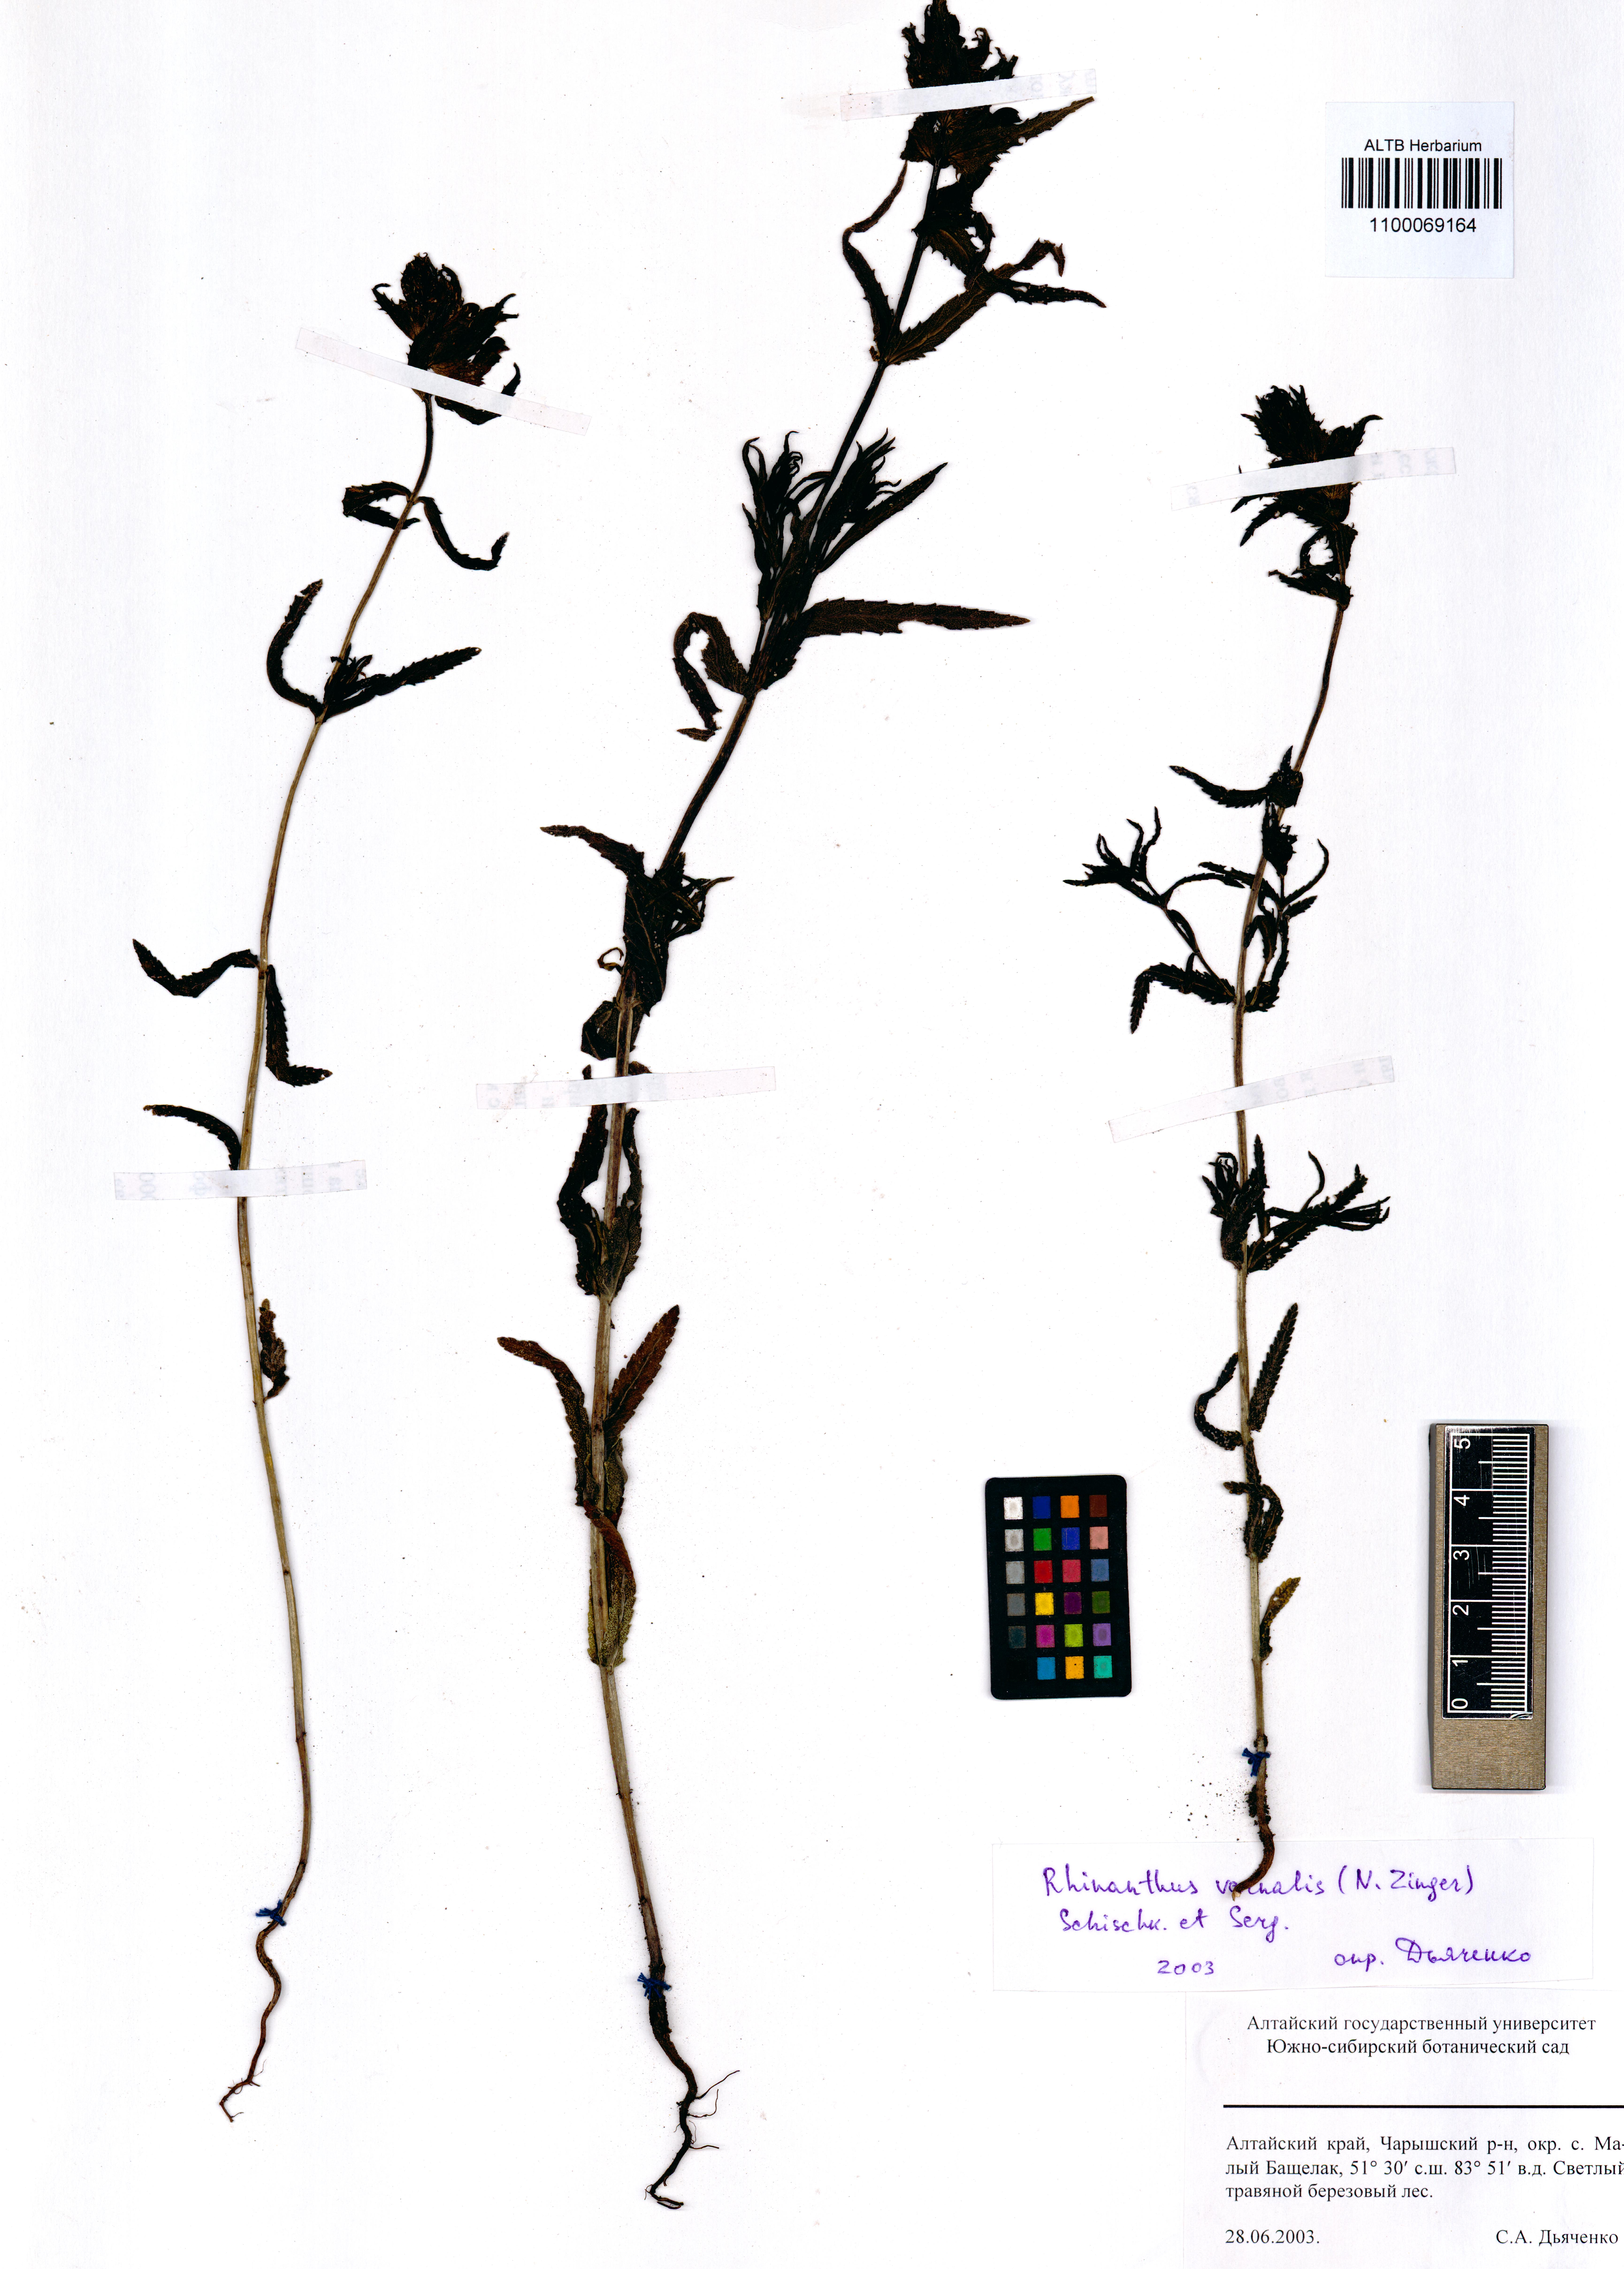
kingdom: Plantae
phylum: Tracheophyta
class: Magnoliopsida
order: Lamiales
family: Orobanchaceae
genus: Rhinanthus
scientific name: Rhinanthus serotinus
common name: Late-flowering yellow rattle
